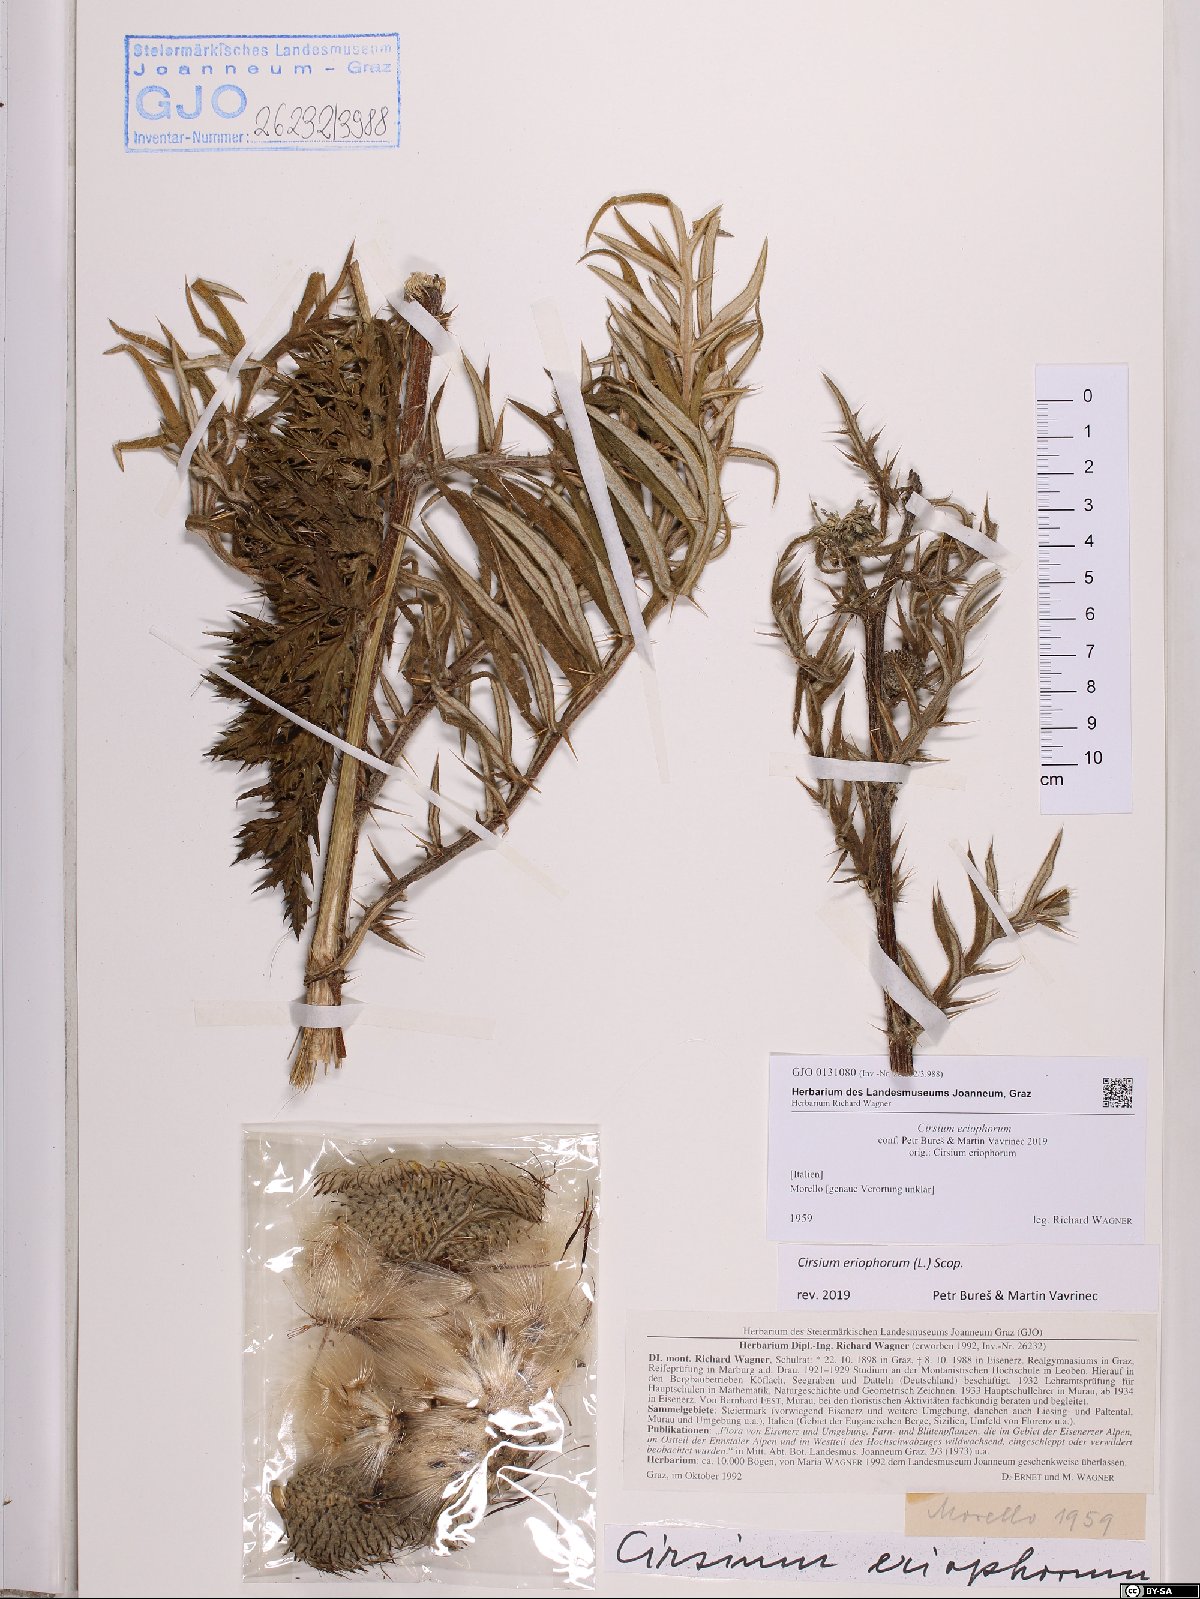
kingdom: Plantae
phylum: Tracheophyta
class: Magnoliopsida
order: Asterales
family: Asteraceae
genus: Lophiolepis
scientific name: Lophiolepis eriophora
